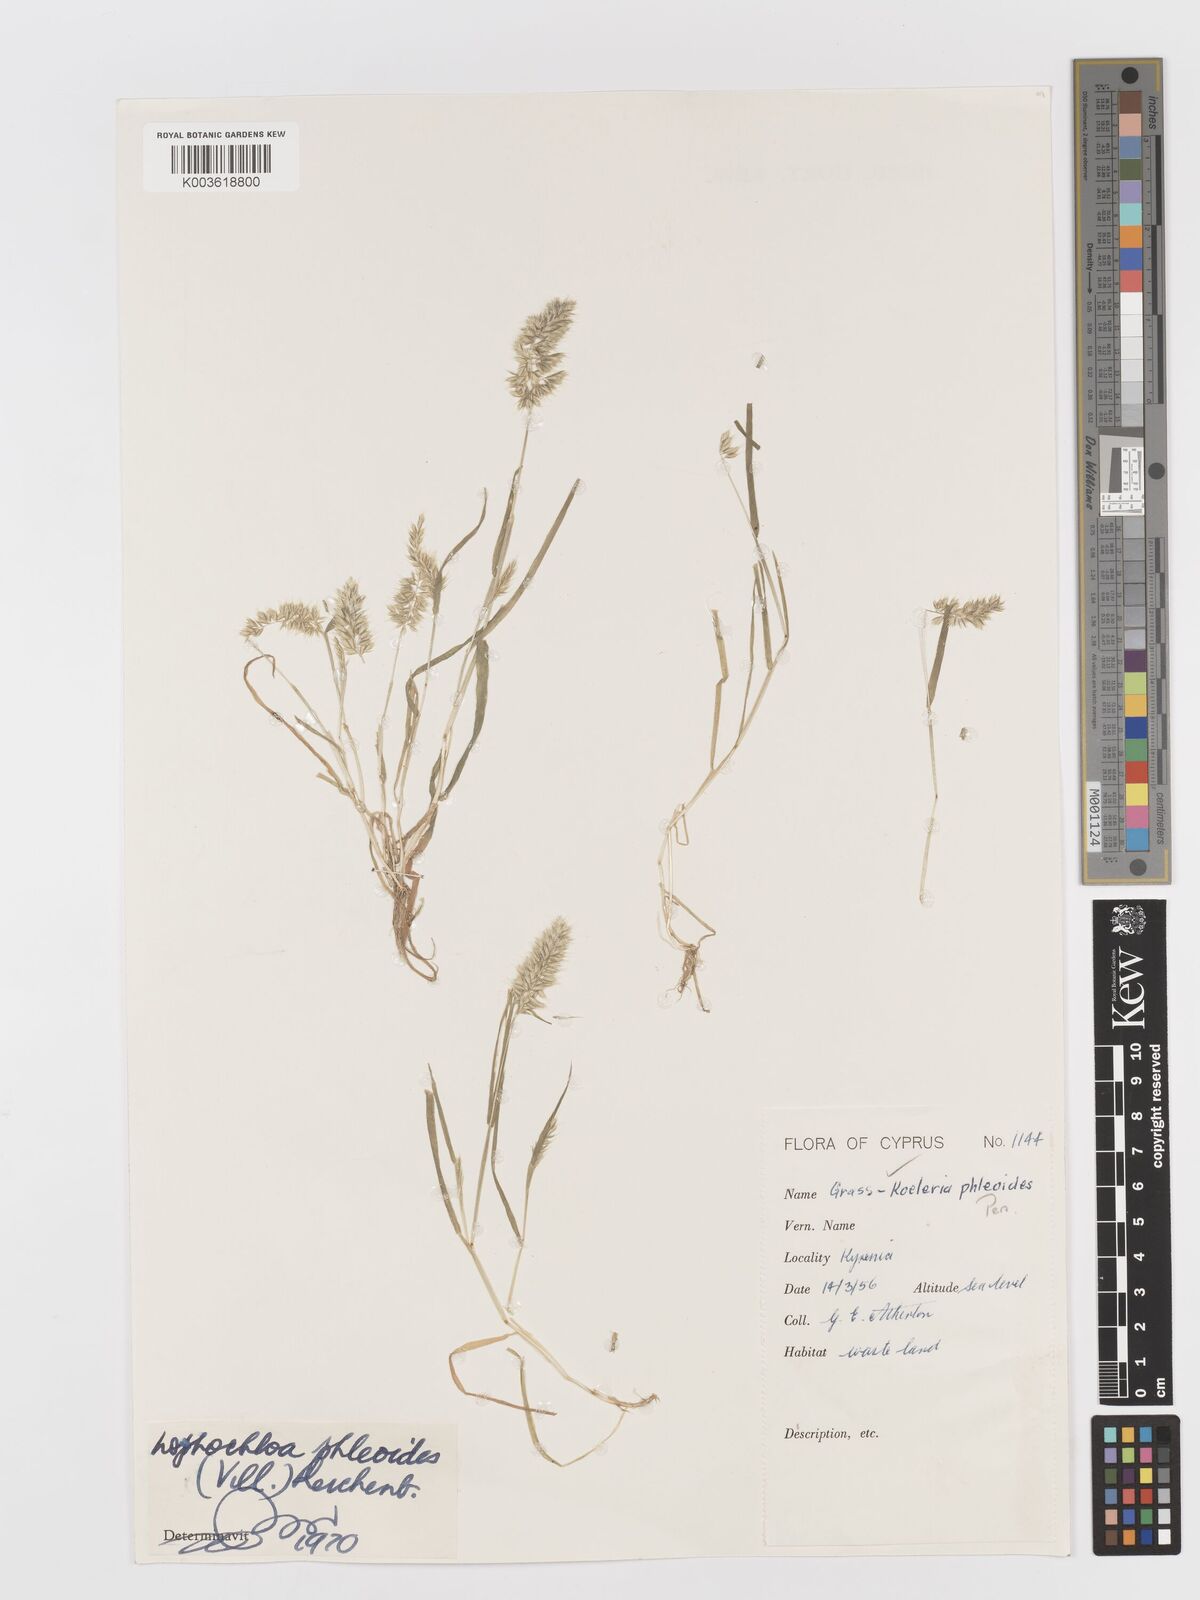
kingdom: Plantae
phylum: Tracheophyta
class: Liliopsida
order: Poales
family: Poaceae
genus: Rostraria
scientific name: Rostraria cristata
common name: Mediterranean hair-grass
